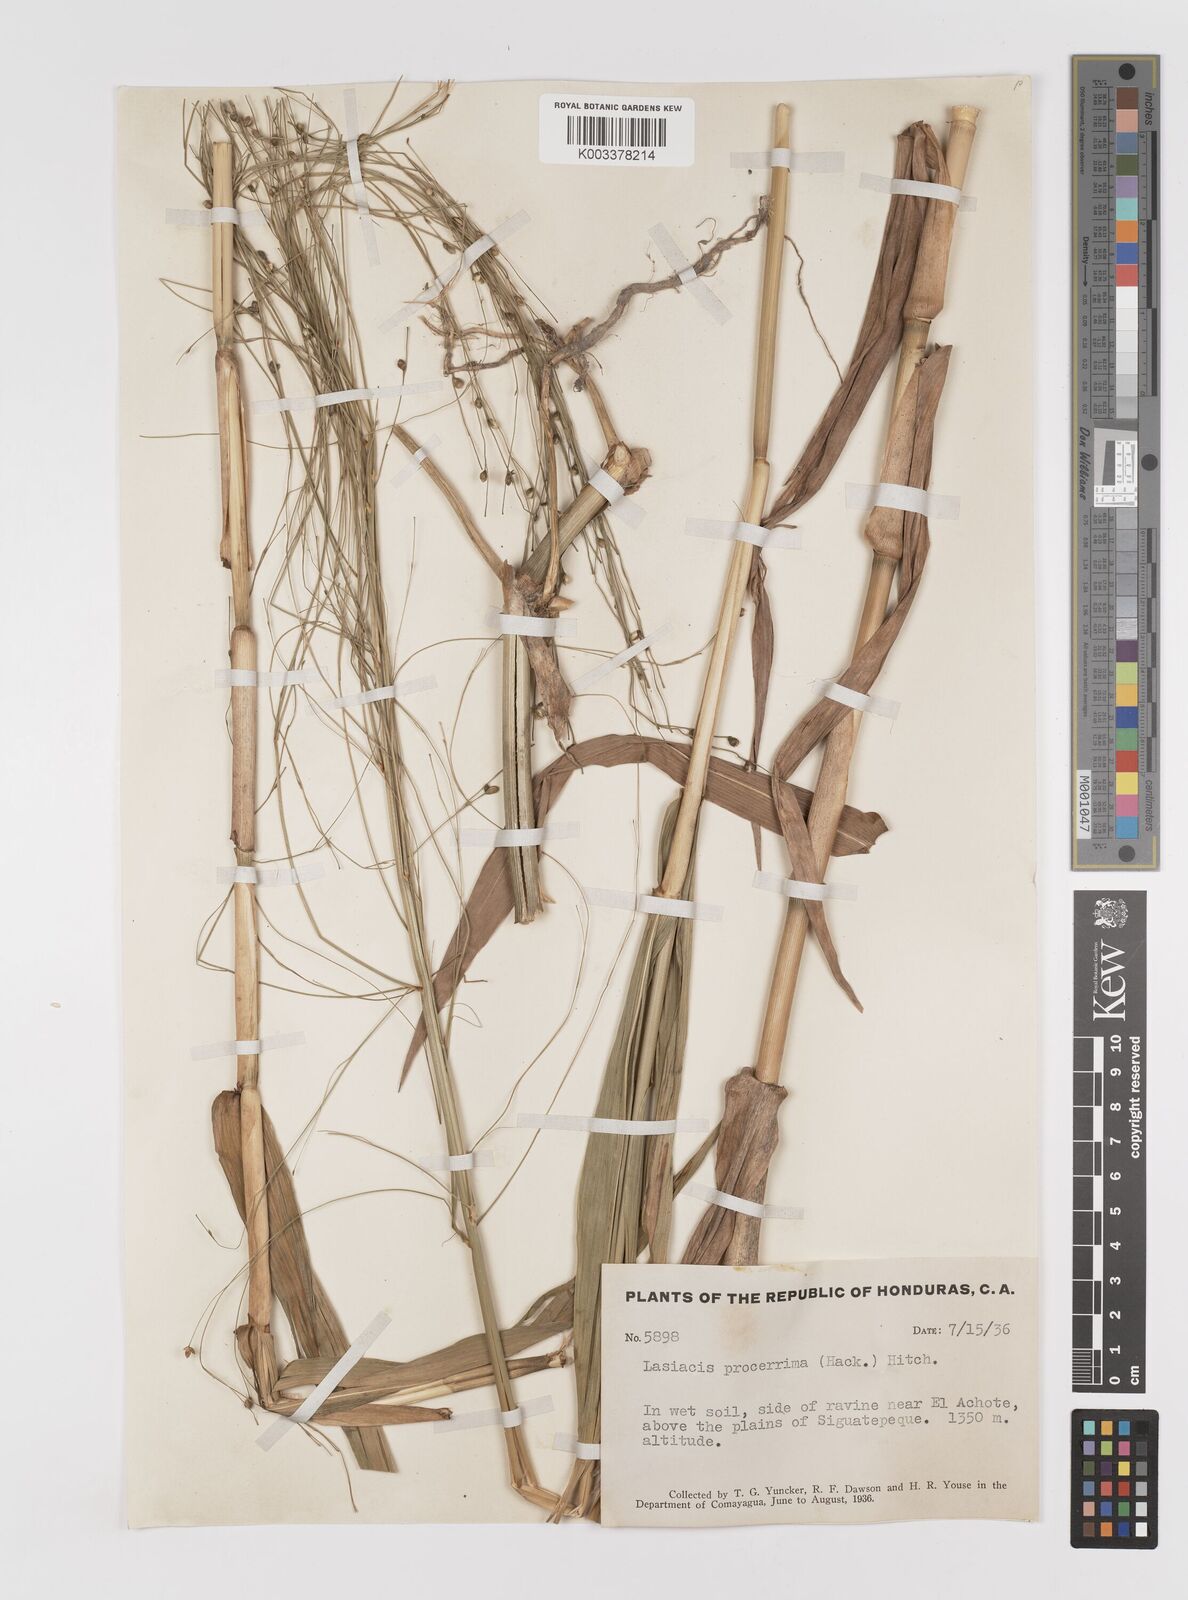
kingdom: Plantae
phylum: Tracheophyta
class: Liliopsida
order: Poales
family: Poaceae
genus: Lasiacis
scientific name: Lasiacis procerrima
